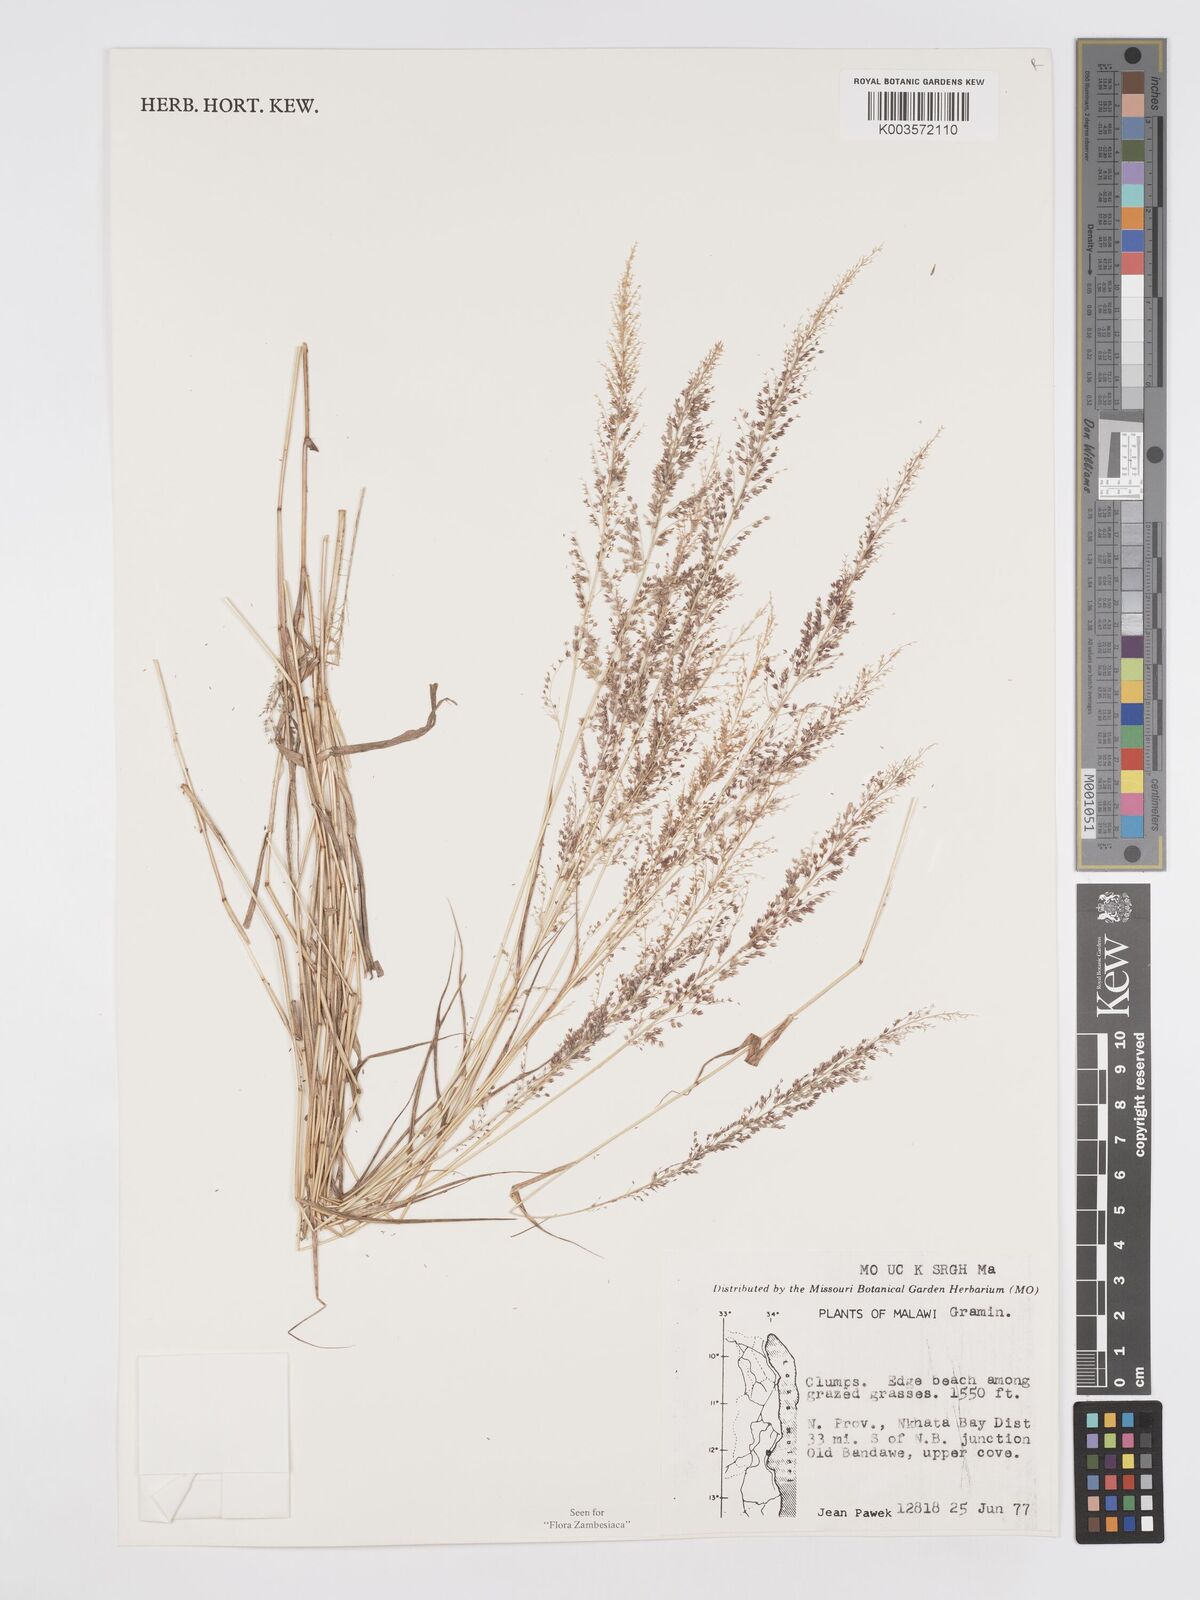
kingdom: Plantae
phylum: Tracheophyta
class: Liliopsida
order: Poales
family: Poaceae
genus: Eragrostis
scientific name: Eragrostis arenicola
